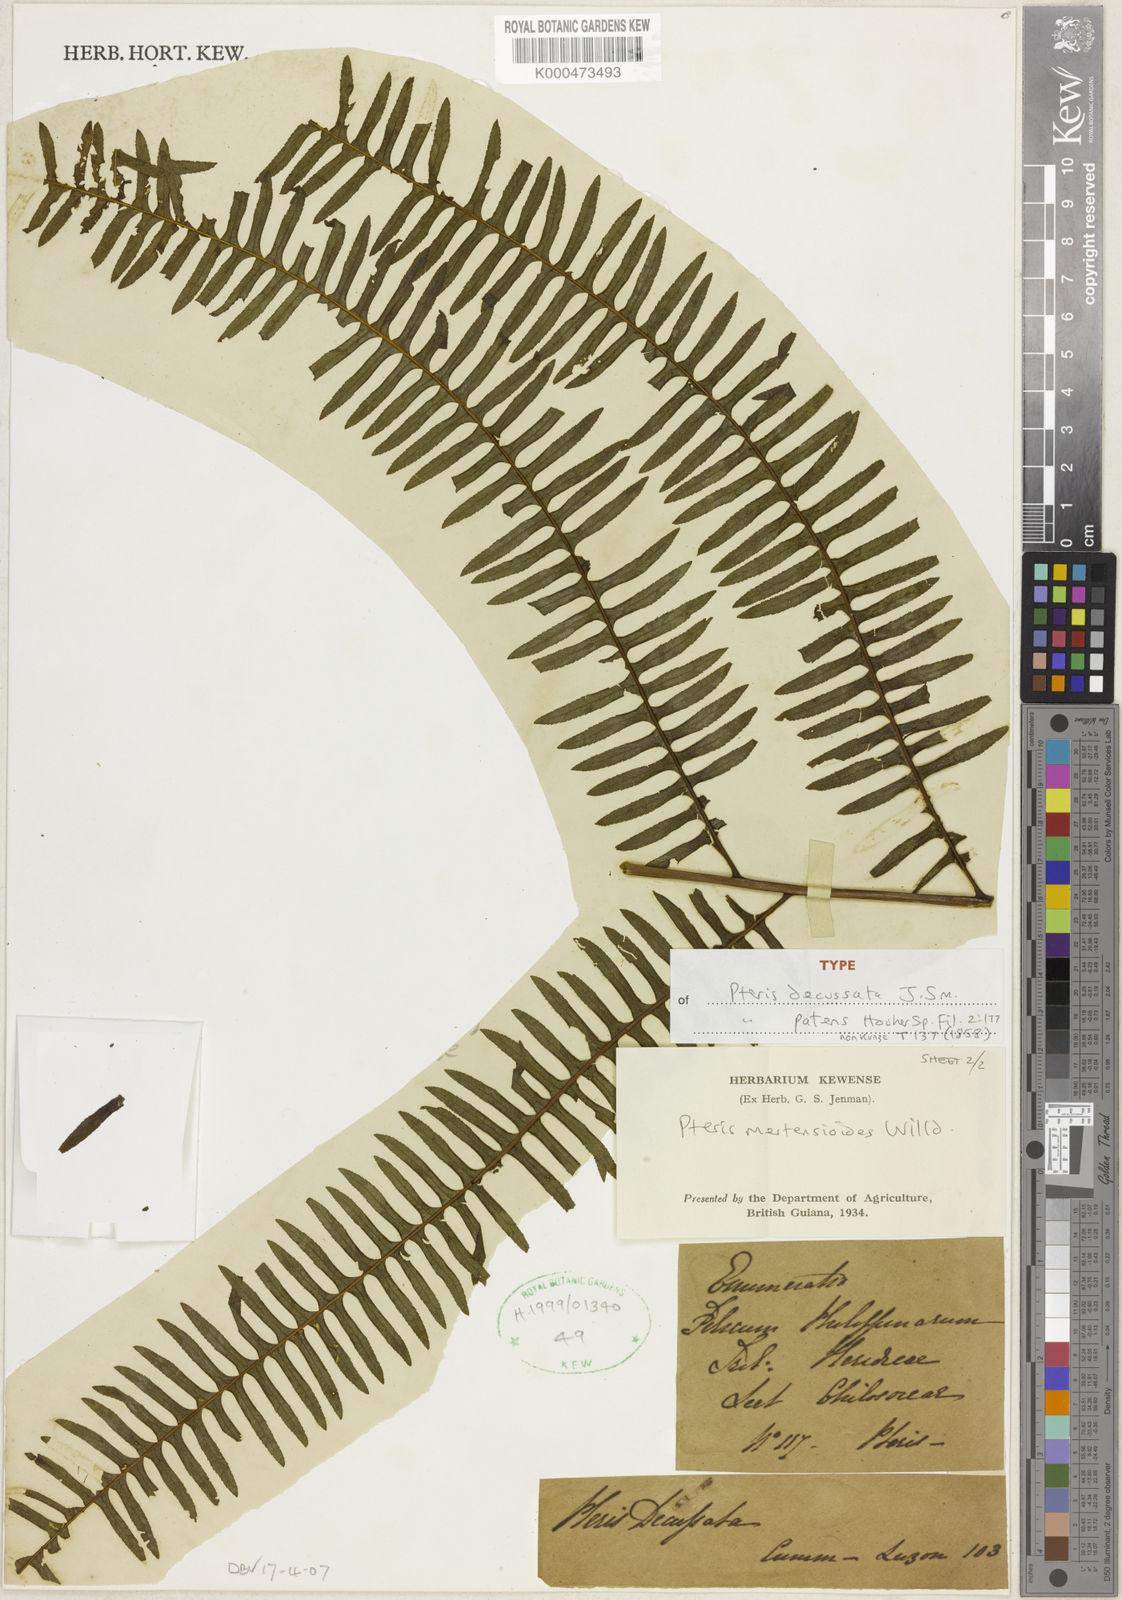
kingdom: Plantae
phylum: Tracheophyta
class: Polypodiopsida
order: Polypodiales
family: Pteridaceae
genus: Pteris
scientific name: Pteris mertensioides
